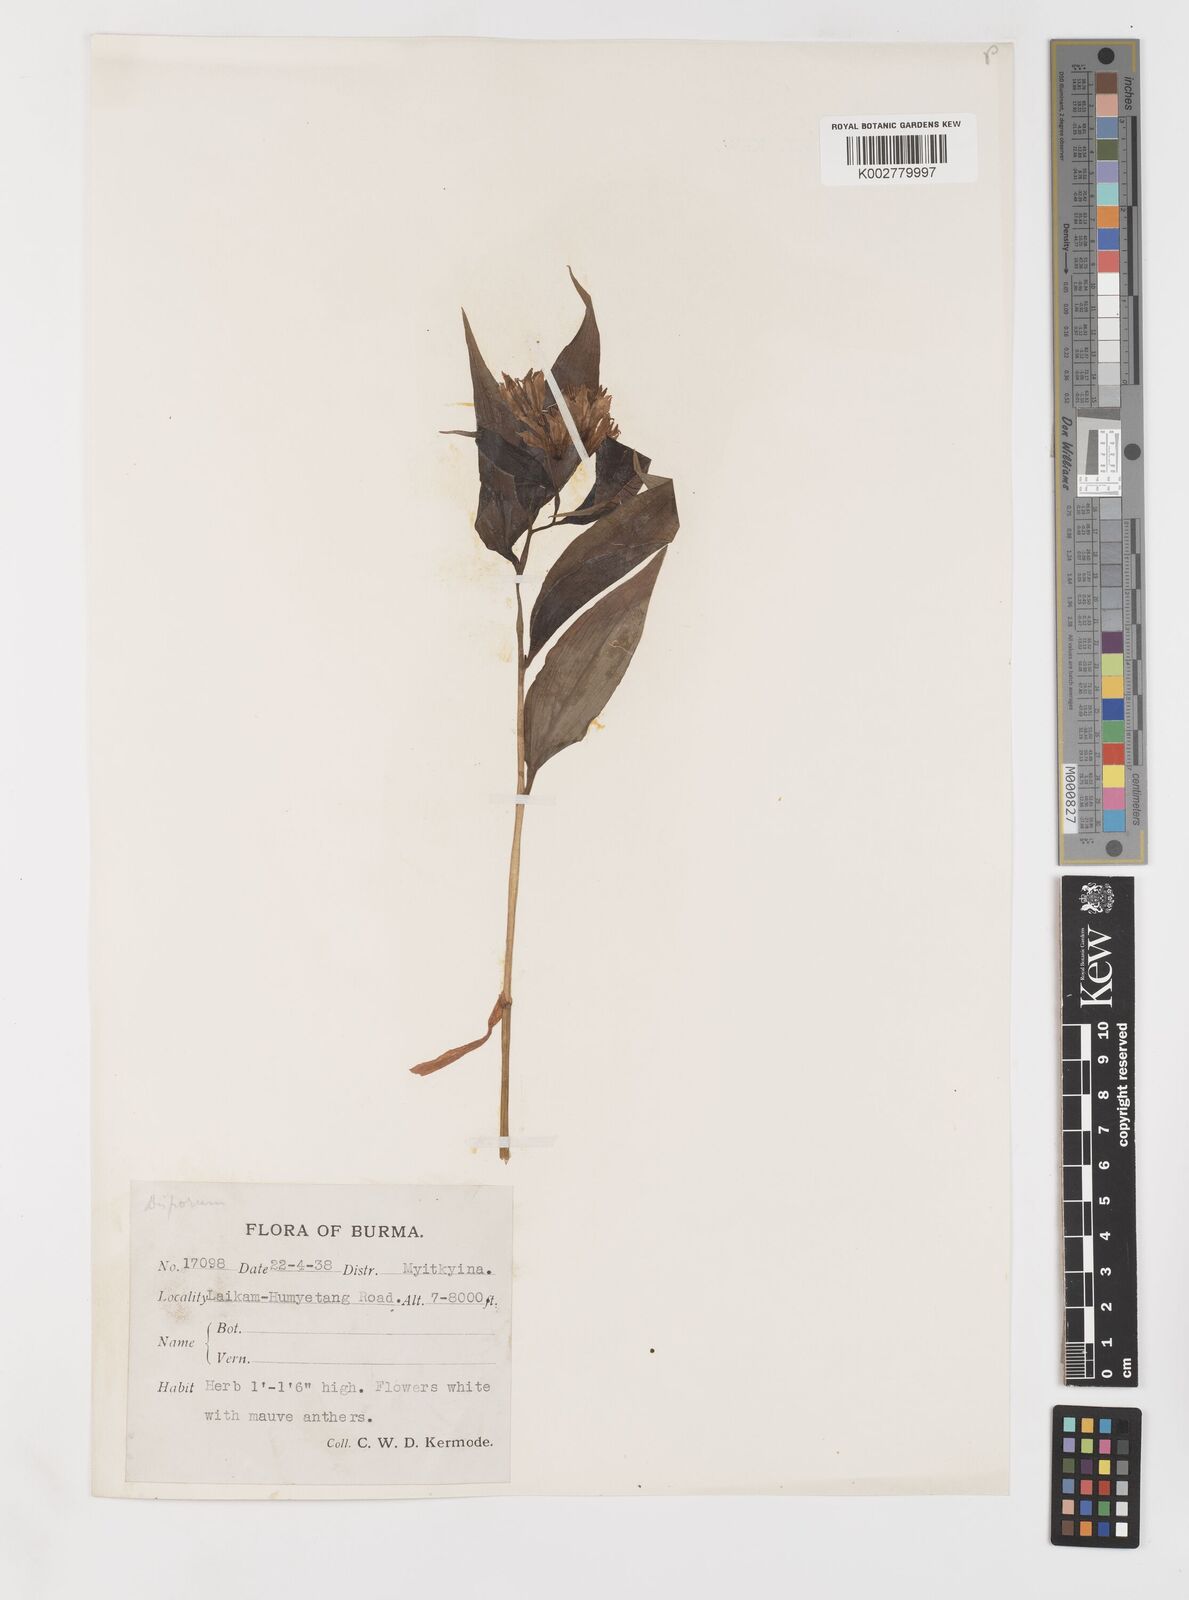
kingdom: Plantae
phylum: Tracheophyta
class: Liliopsida
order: Liliales
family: Colchicaceae
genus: Disporum
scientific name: Disporum
